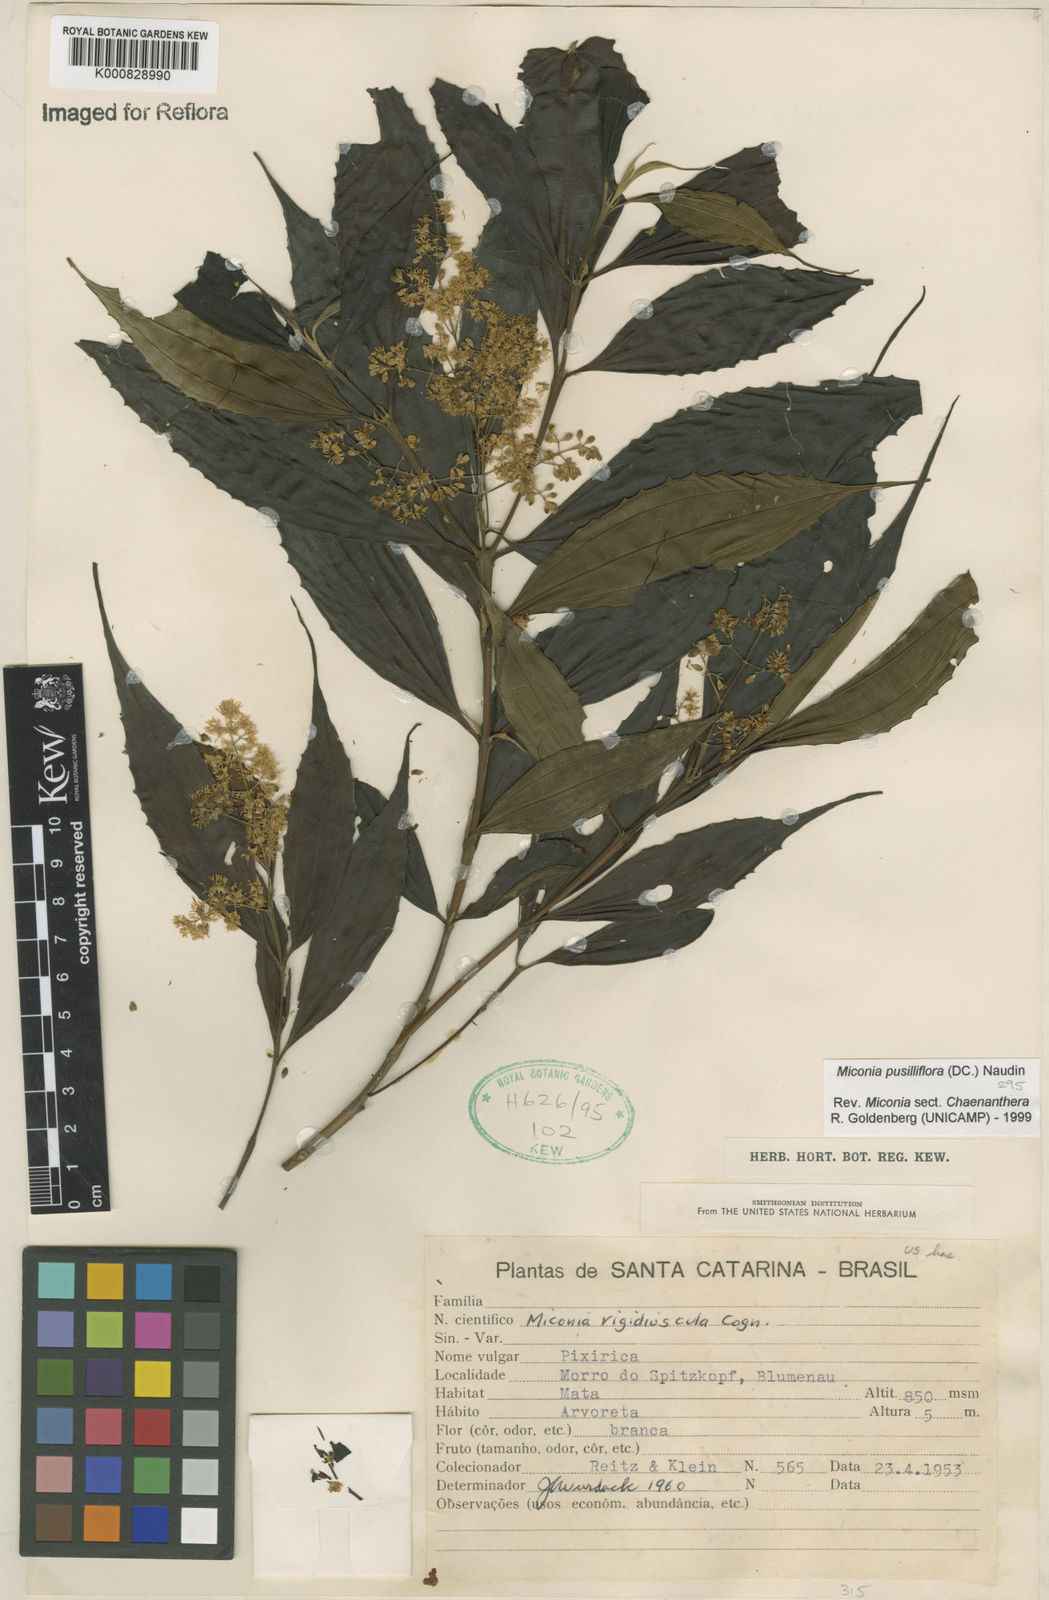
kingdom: Plantae
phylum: Tracheophyta
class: Magnoliopsida
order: Myrtales
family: Melastomataceae
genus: Miconia
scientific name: Miconia pusilliflora
